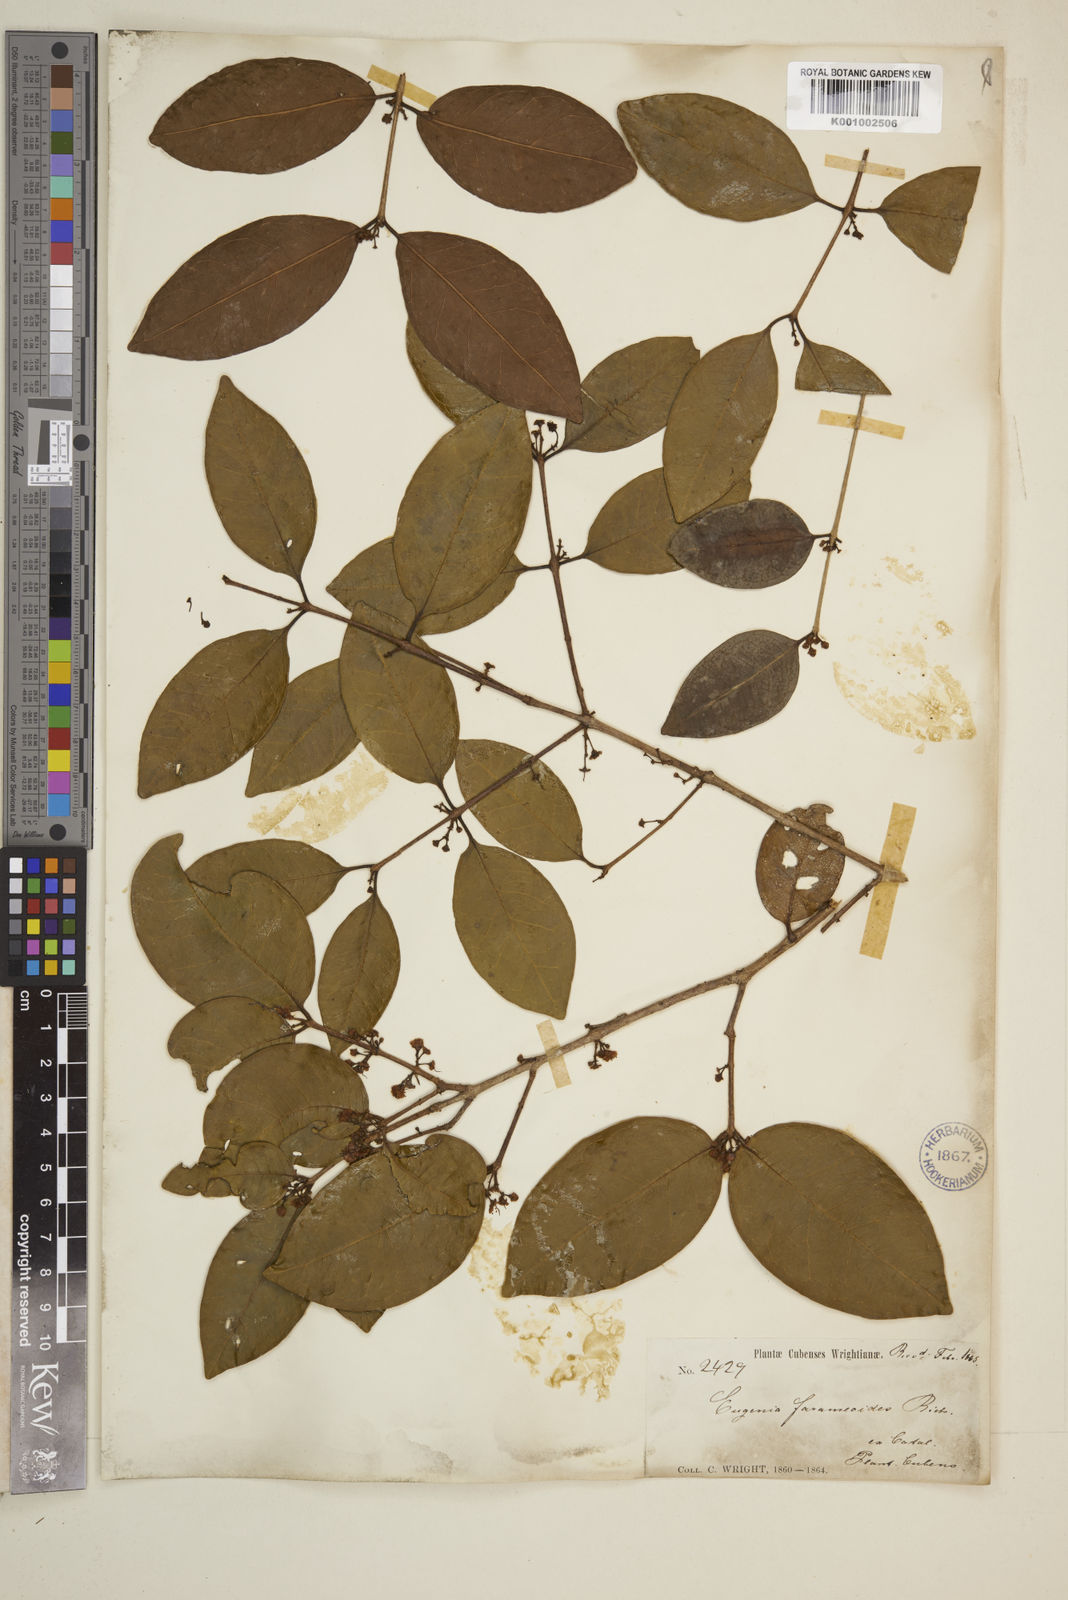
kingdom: Plantae
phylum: Tracheophyta
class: Magnoliopsida
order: Myrtales
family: Myrtaceae
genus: Eugenia
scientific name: Eugenia farameoides
